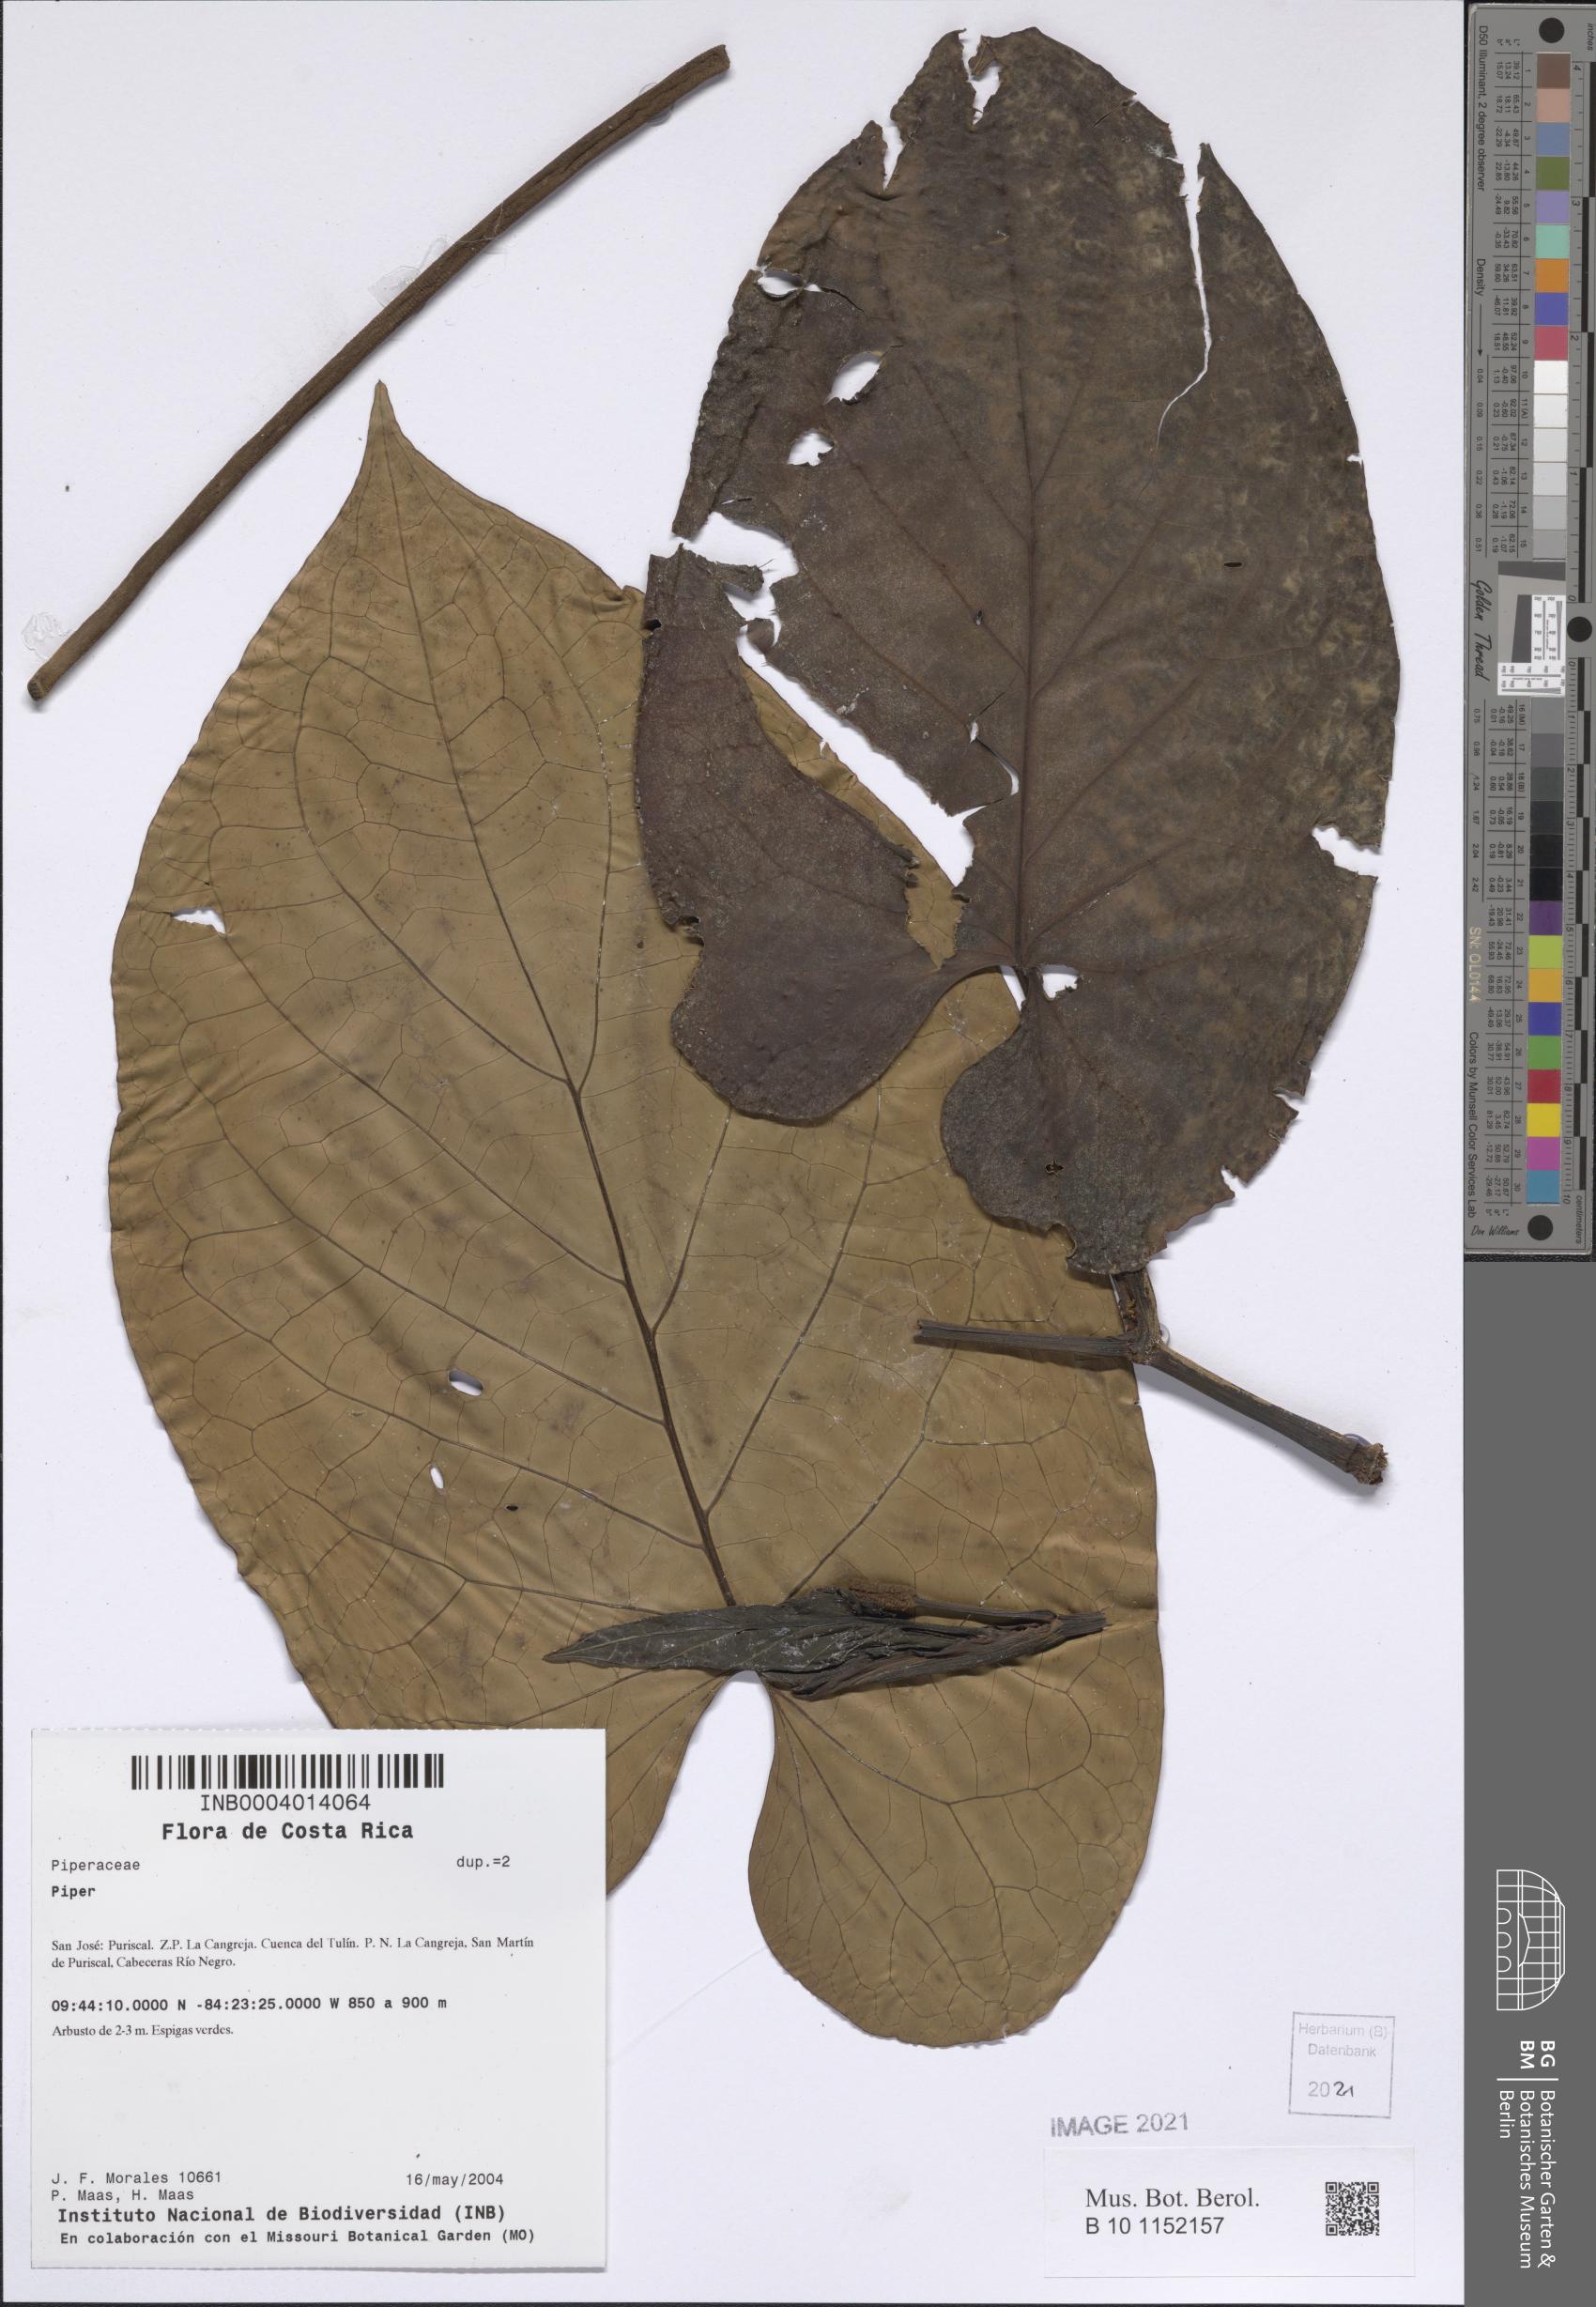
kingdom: Plantae
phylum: Tracheophyta
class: Magnoliopsida
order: Piperales
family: Piperaceae
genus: Piper
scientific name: Piper
